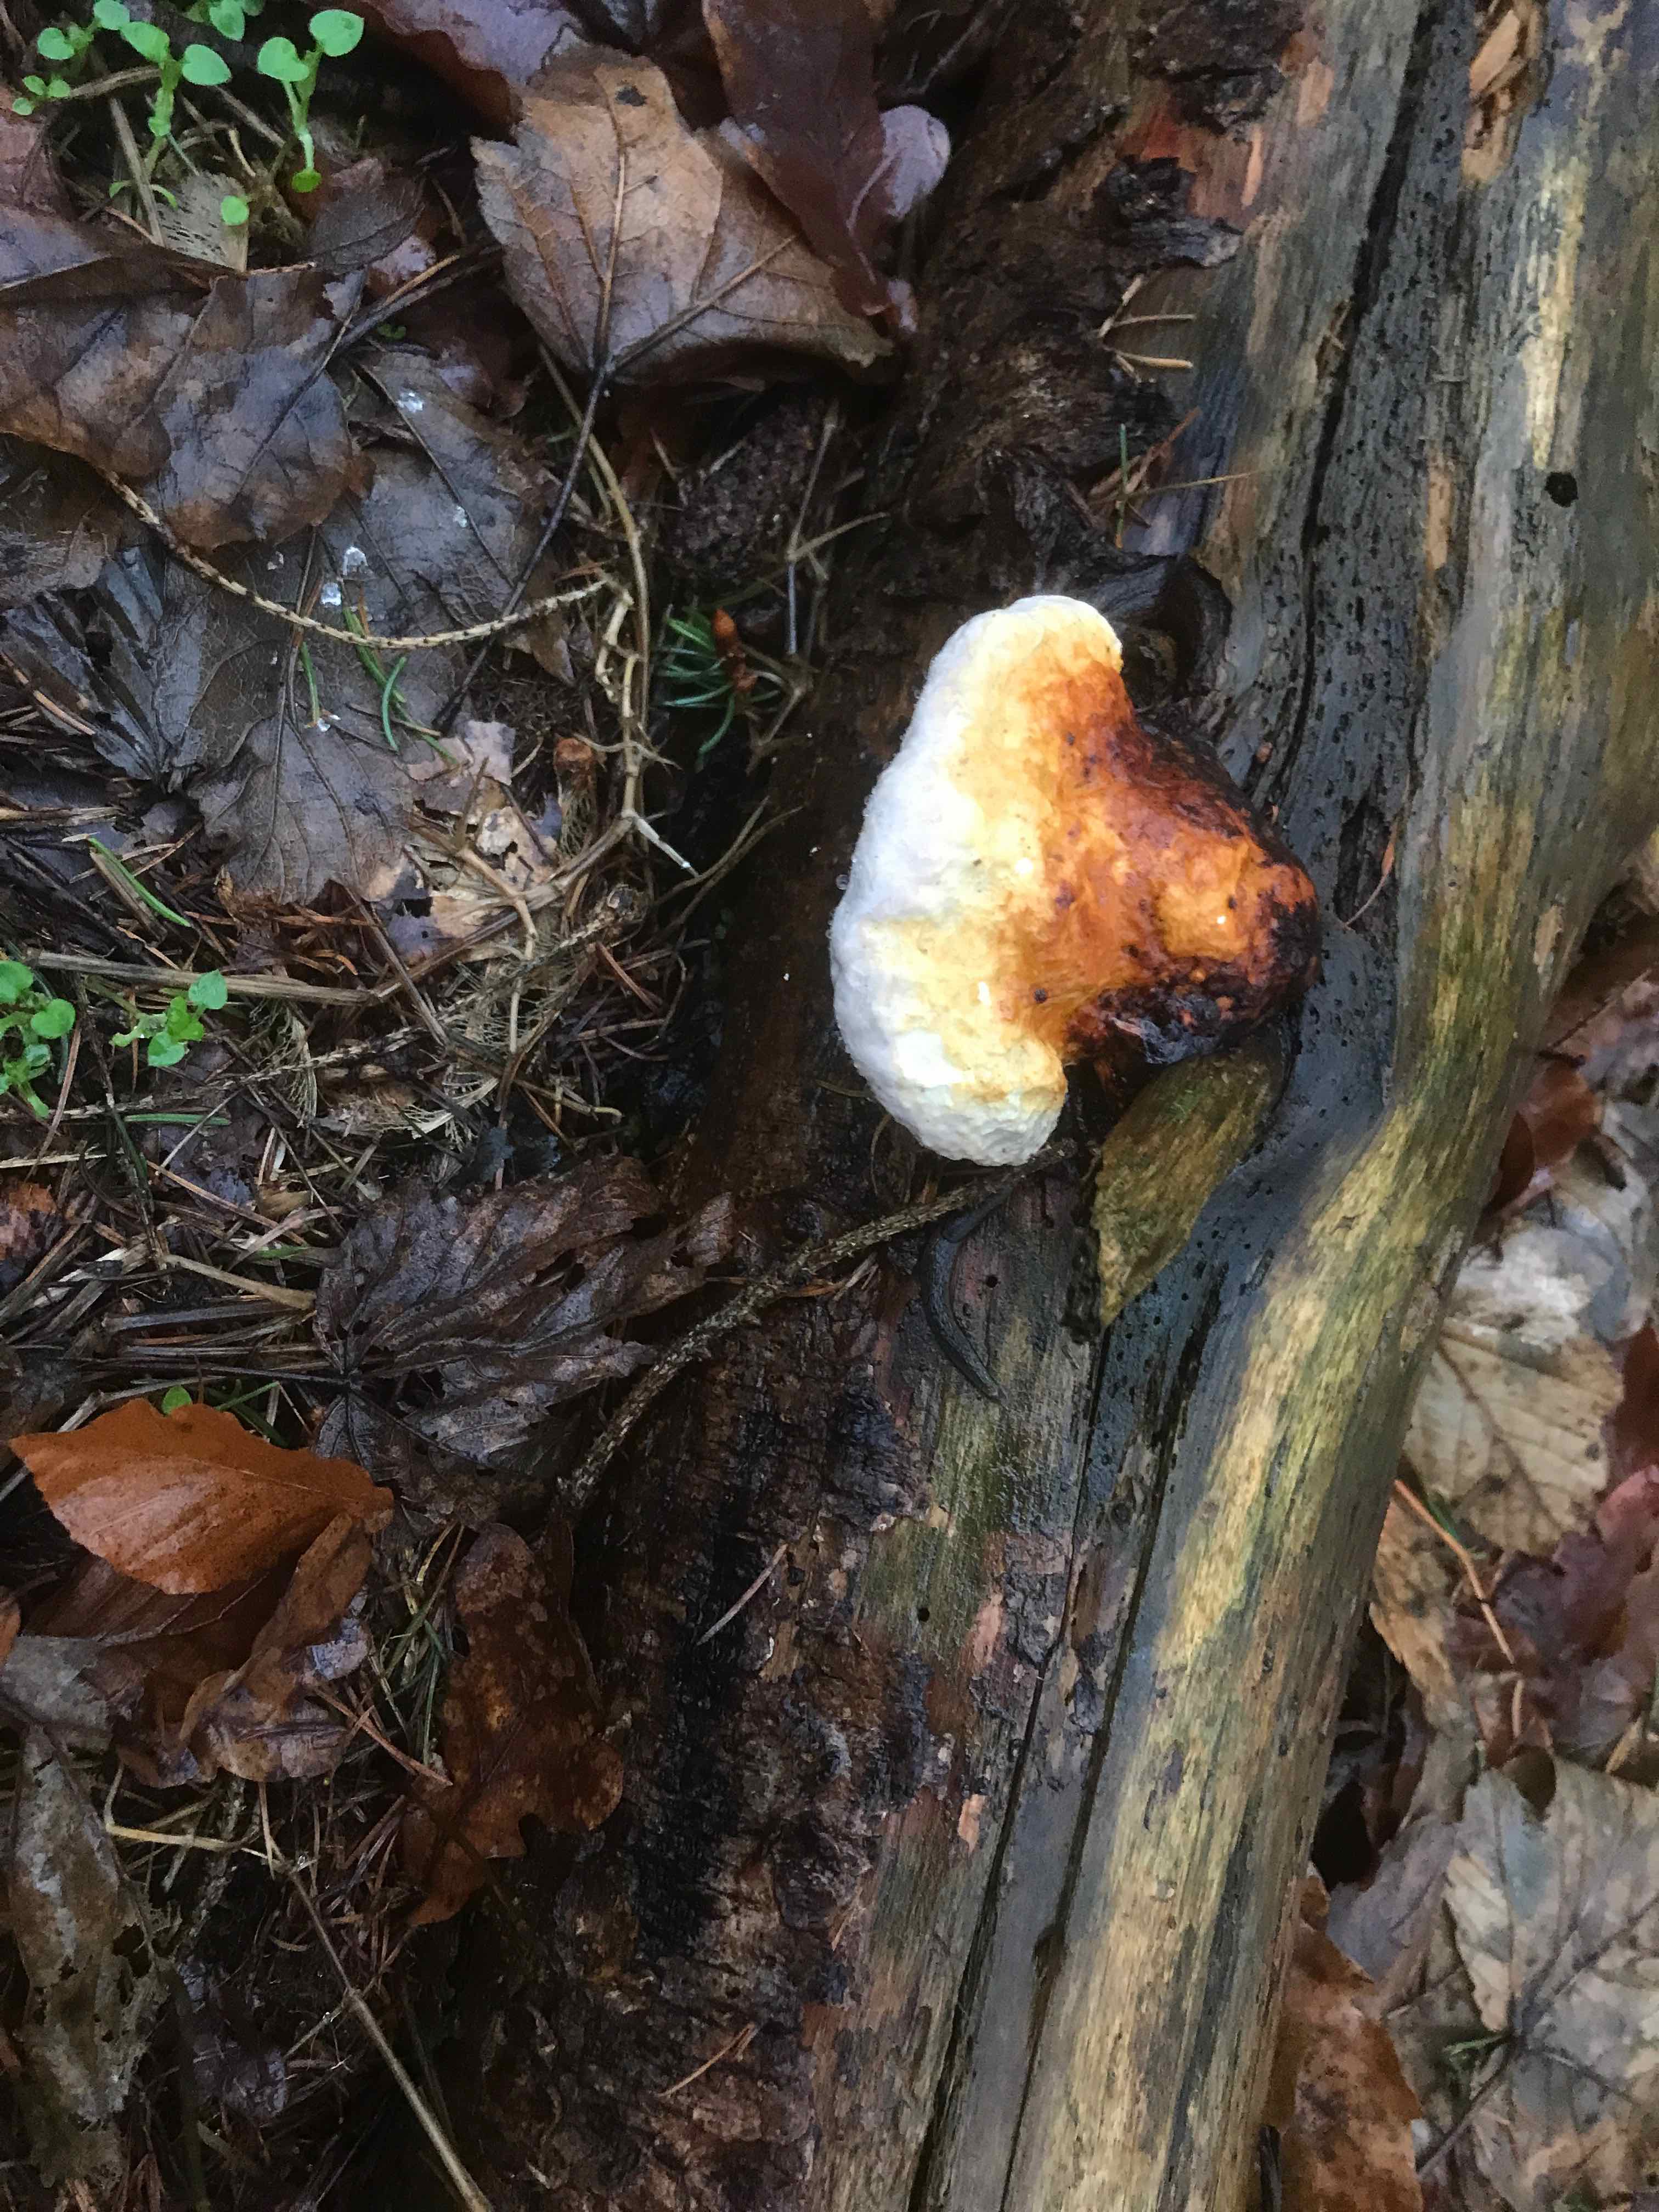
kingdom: Fungi
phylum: Basidiomycota
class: Agaricomycetes
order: Polyporales
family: Fomitopsidaceae
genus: Fomitopsis
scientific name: Fomitopsis pinicola
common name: randbæltet hovporesvamp
